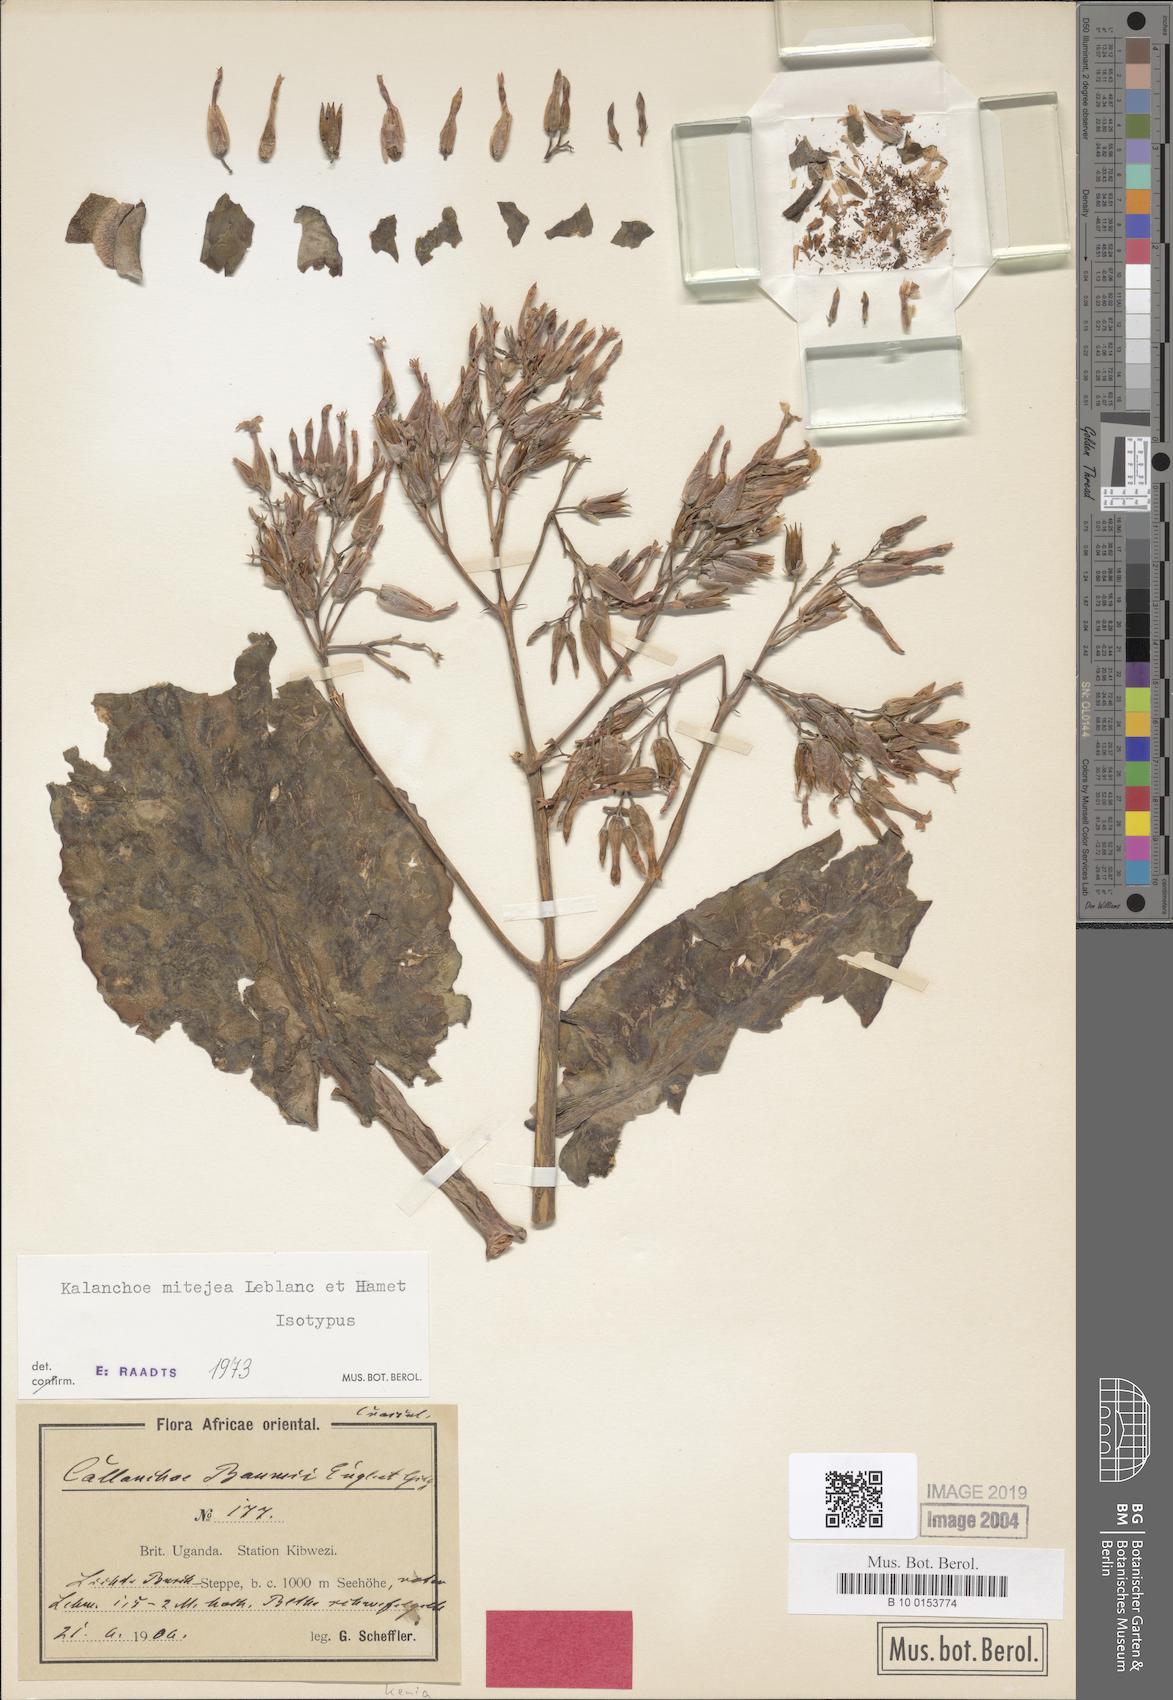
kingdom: Plantae
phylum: Tracheophyta
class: Magnoliopsida
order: Saxifragales
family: Crassulaceae
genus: Kalanchoe
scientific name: Kalanchoe mitejea
